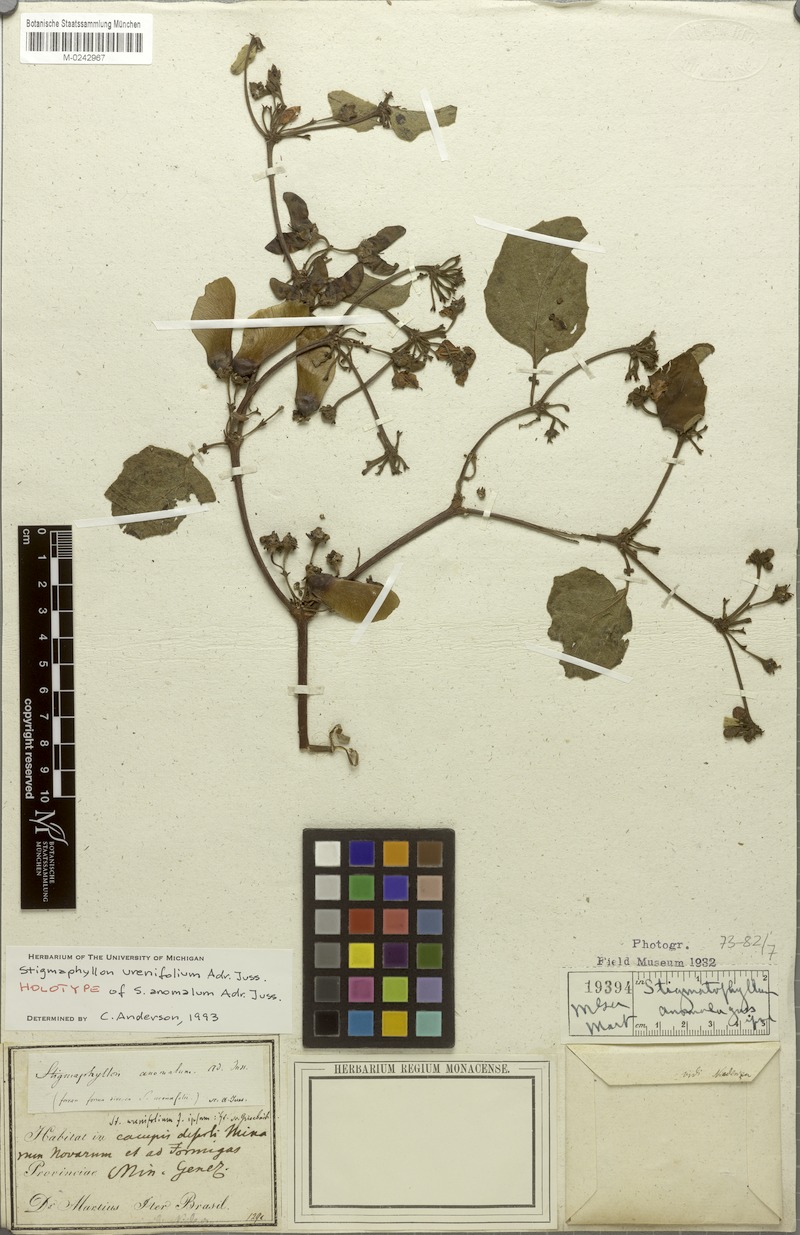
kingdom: Plantae
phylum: Tracheophyta
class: Magnoliopsida
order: Malpighiales
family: Malpighiaceae
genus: Stigmaphyllon
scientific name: Stigmaphyllon urenifolium
